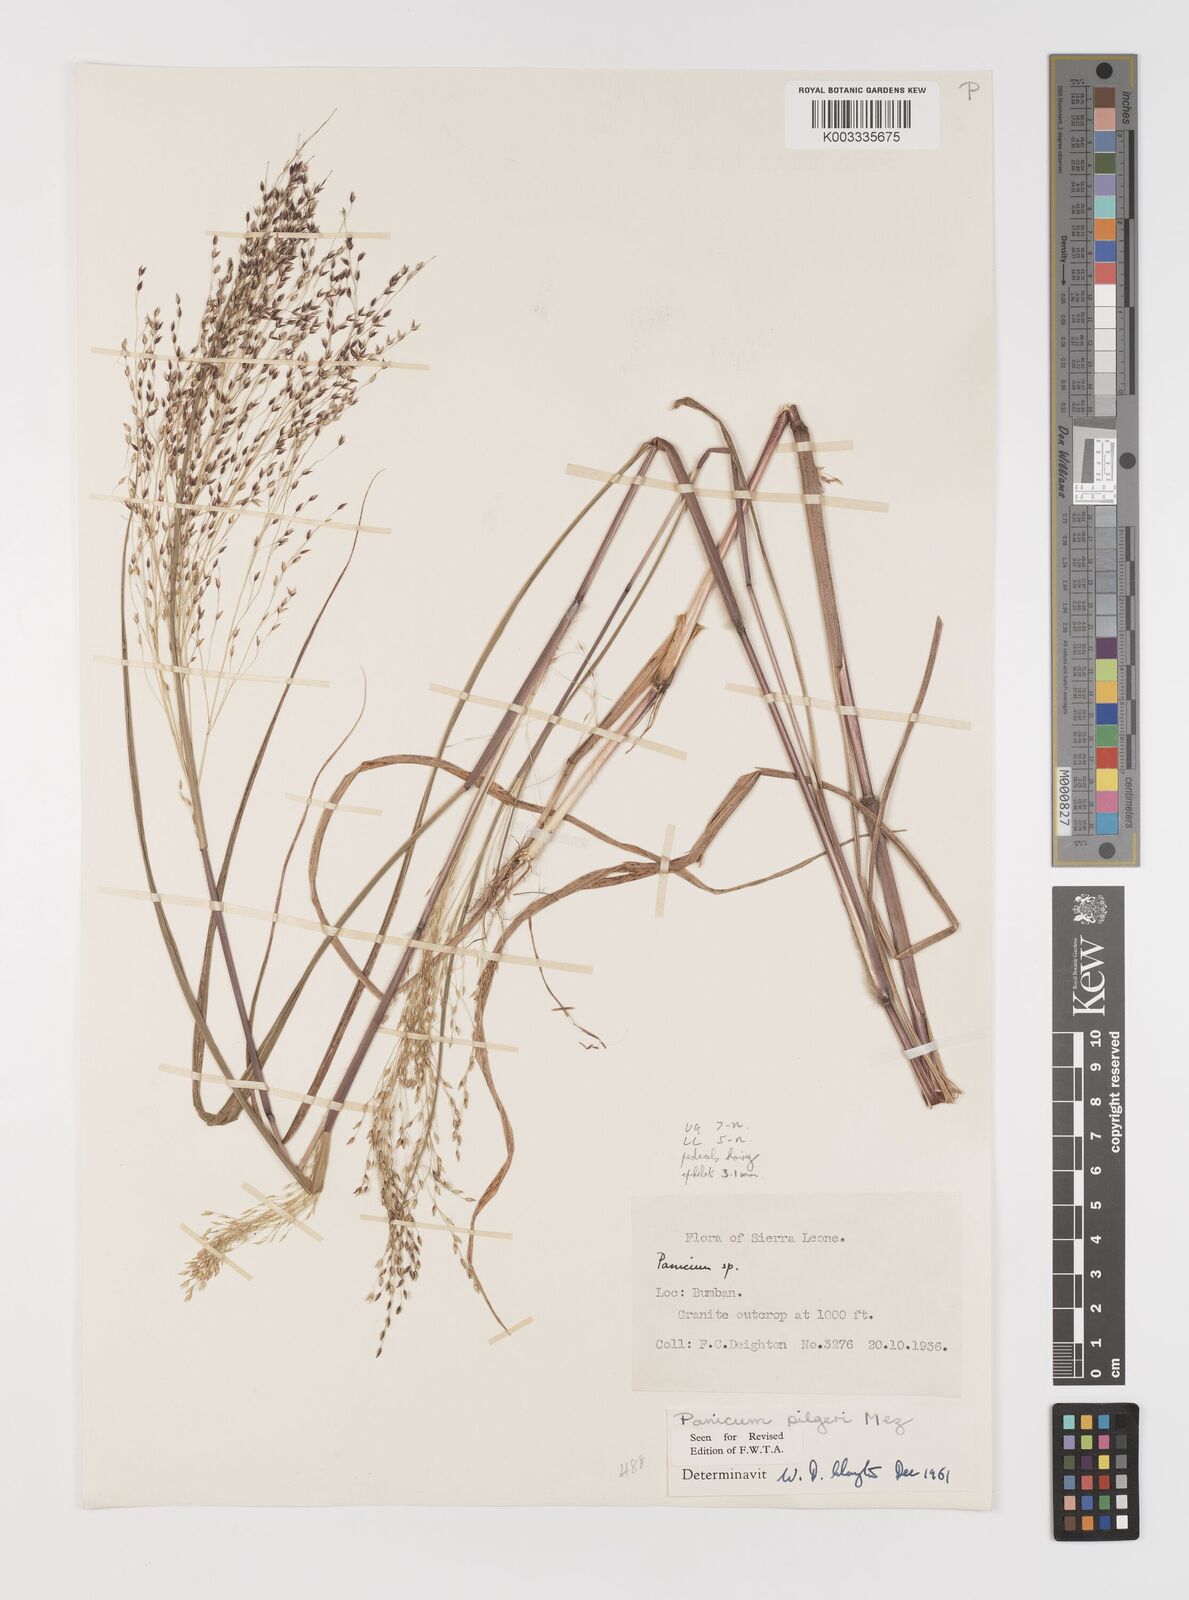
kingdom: Plantae
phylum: Tracheophyta
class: Liliopsida
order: Poales
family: Poaceae
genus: Panicum
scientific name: Panicum
